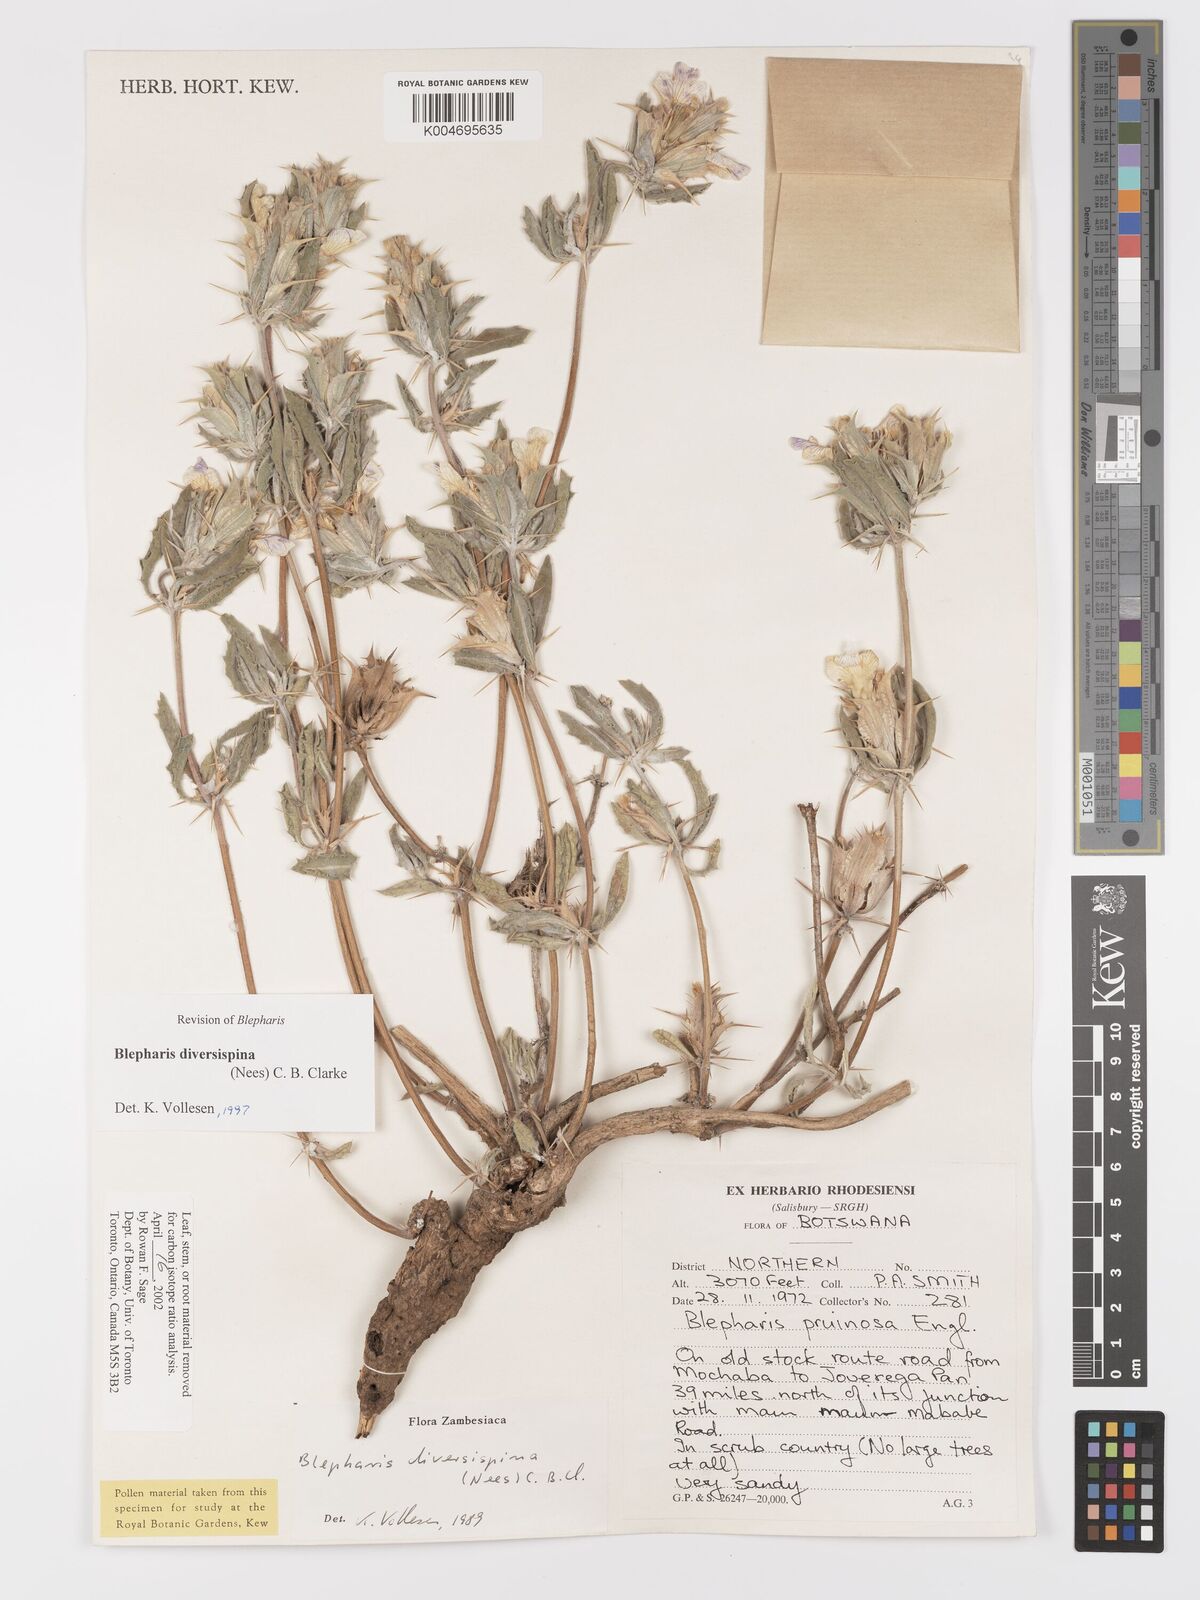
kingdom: Plantae
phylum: Tracheophyta
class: Magnoliopsida
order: Lamiales
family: Acanthaceae
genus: Blepharis
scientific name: Blepharis diversispina
